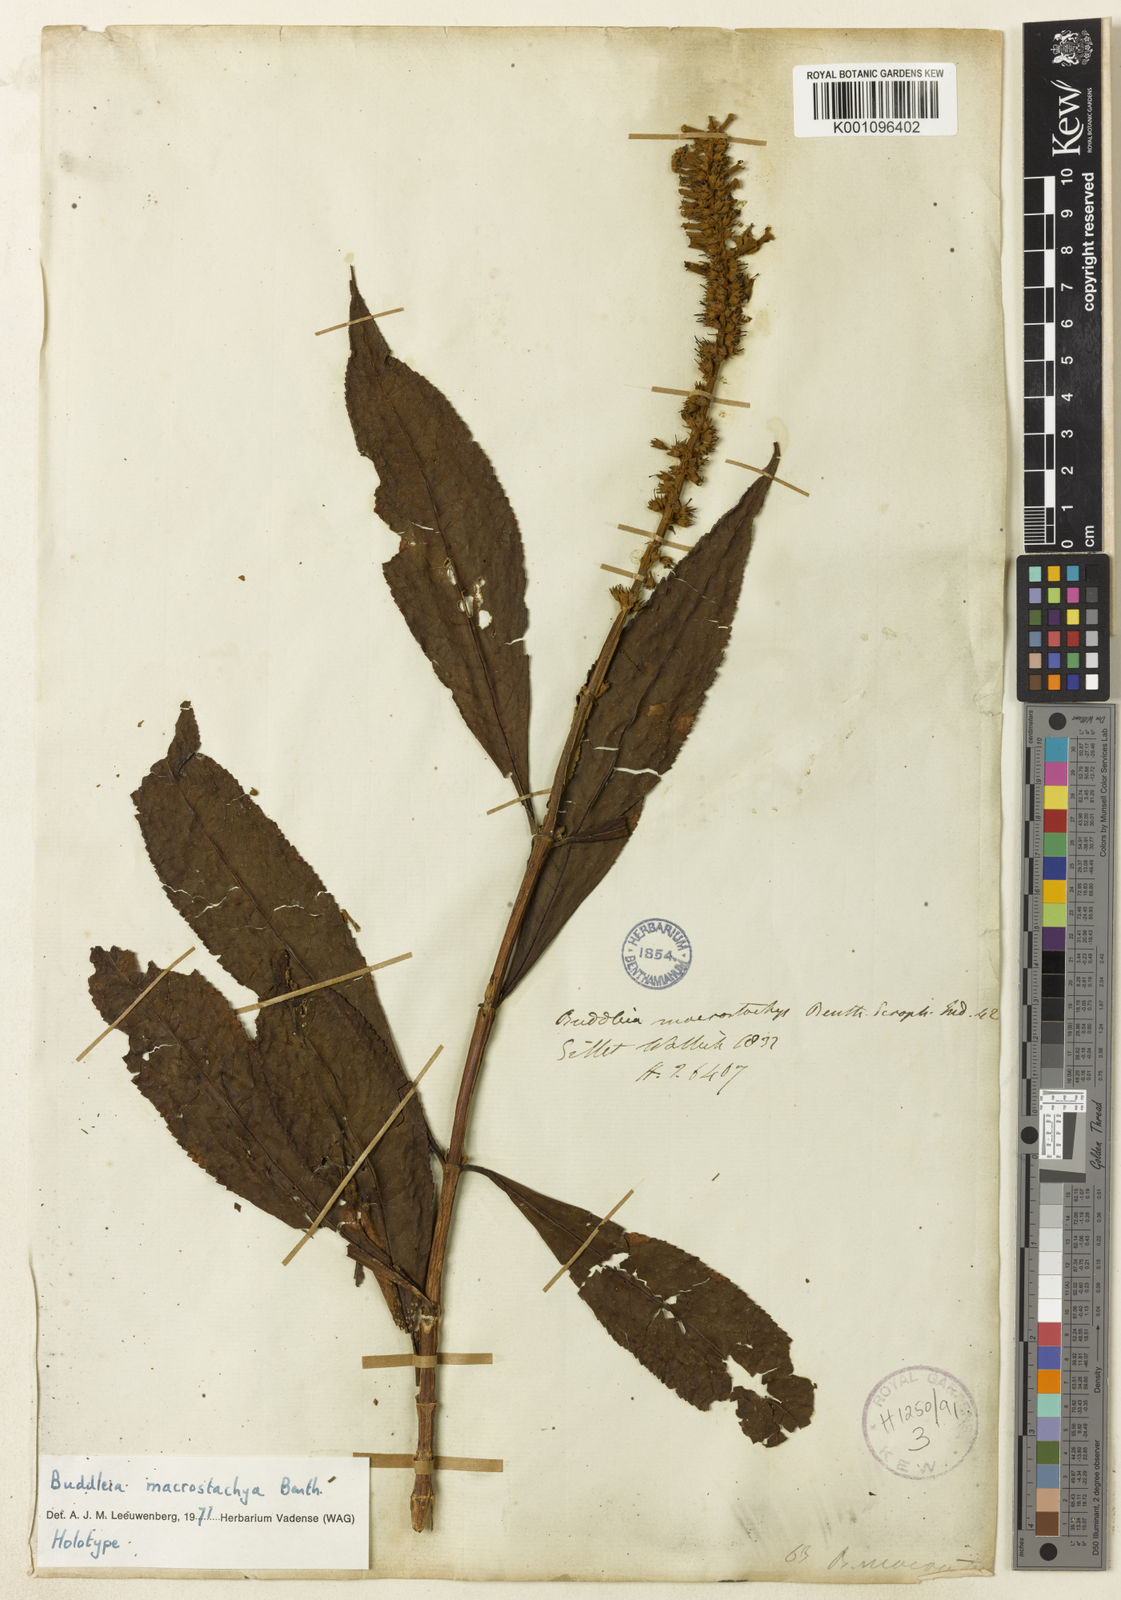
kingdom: Plantae
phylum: Tracheophyta
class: Magnoliopsida
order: Lamiales
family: Scrophulariaceae
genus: Buddleja
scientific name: Buddleja macrostachya
